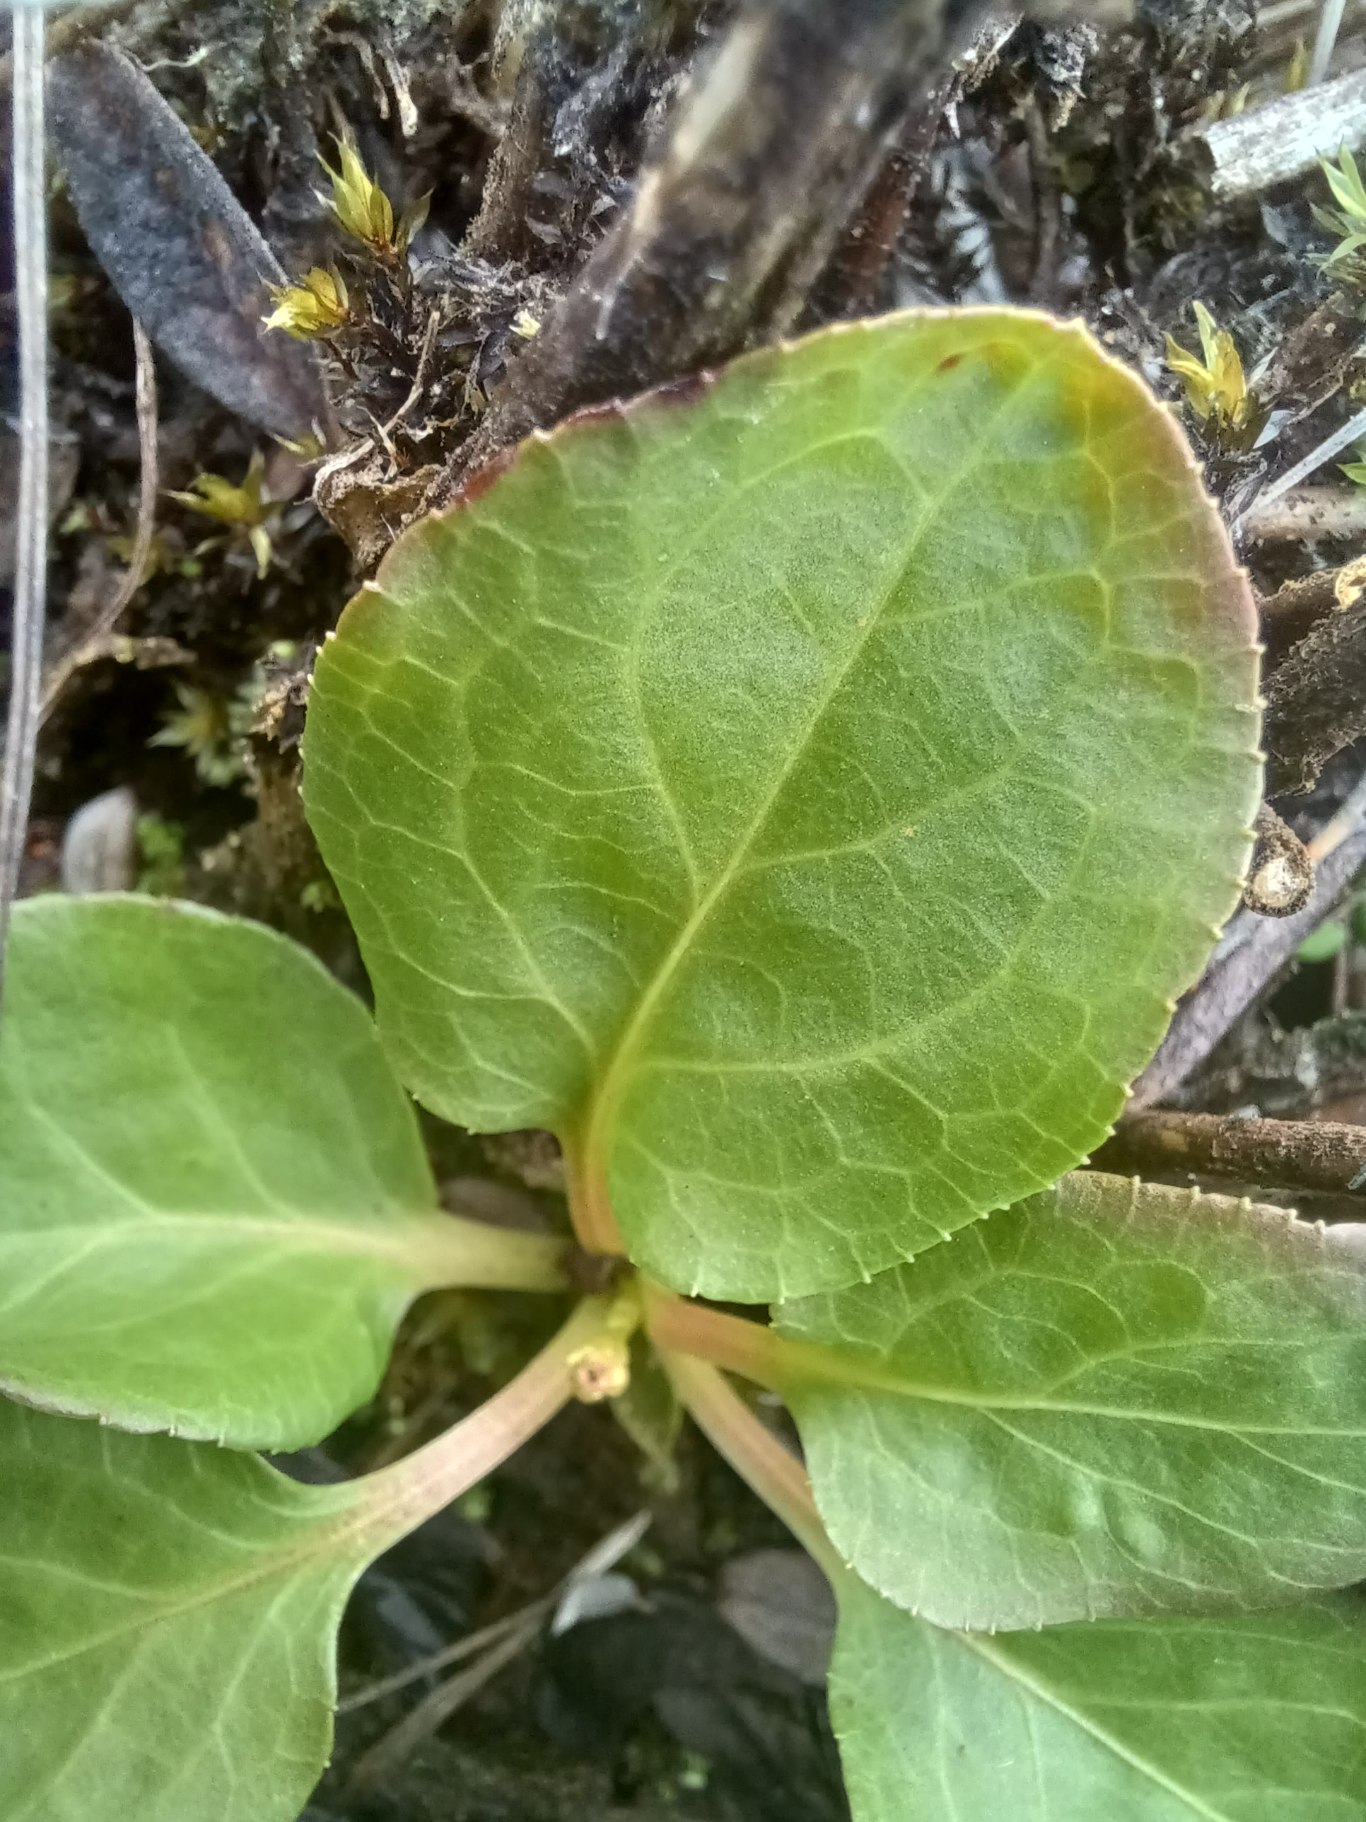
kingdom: Plantae
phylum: Tracheophyta
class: Magnoliopsida
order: Ericales
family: Ericaceae
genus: Pyrola
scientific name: Pyrola minor
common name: Liden vintergrøn
